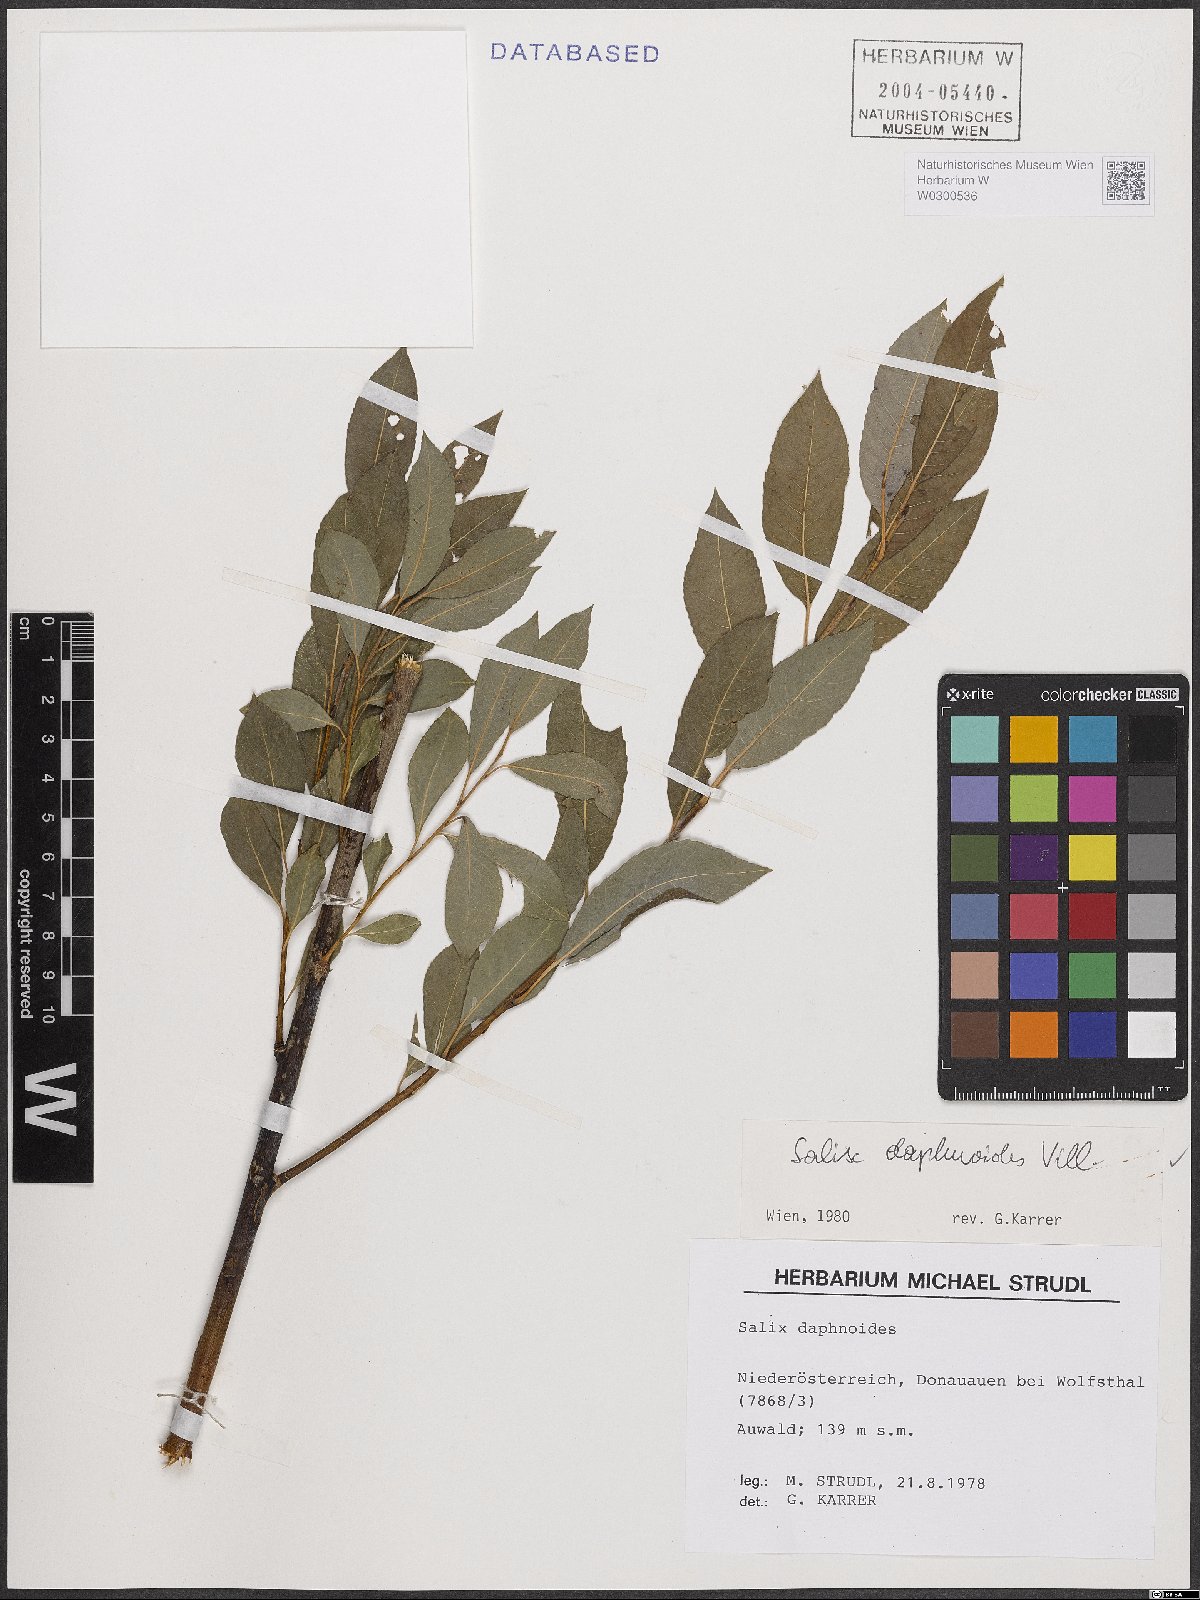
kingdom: Plantae
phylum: Tracheophyta
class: Magnoliopsida
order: Malpighiales
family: Salicaceae
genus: Salix
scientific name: Salix daphnoides
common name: European violet-willow
